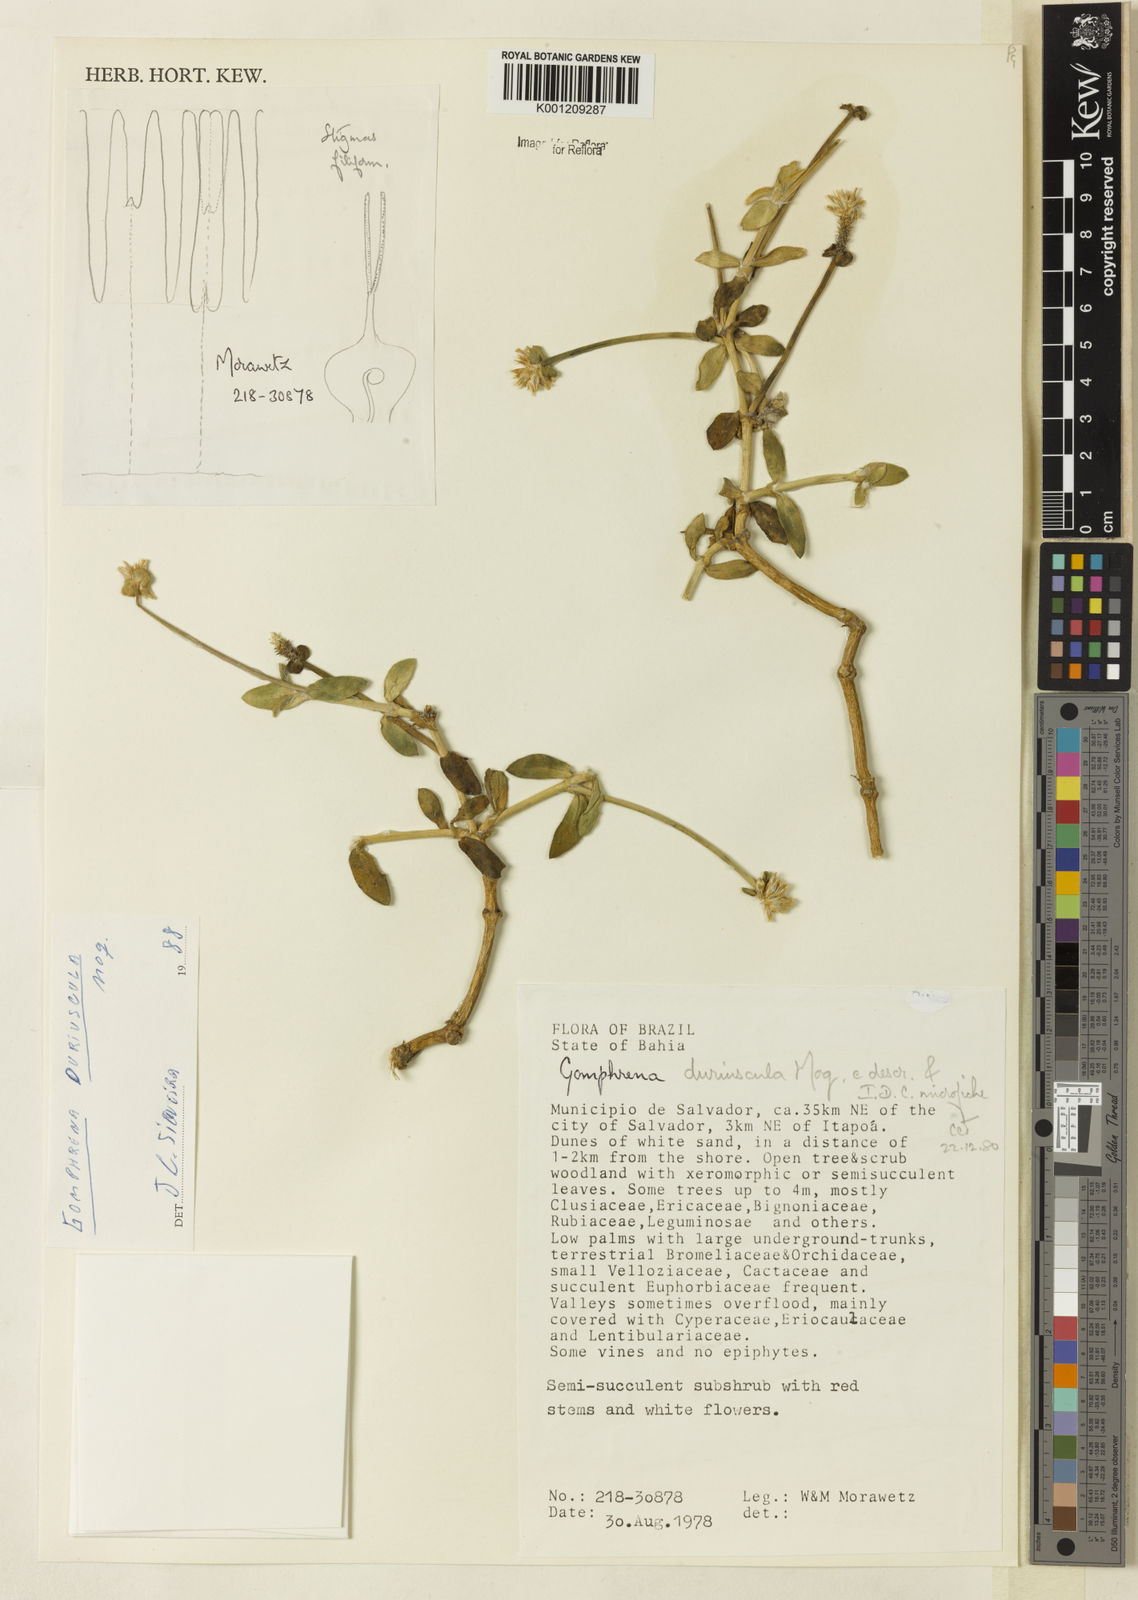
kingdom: Plantae
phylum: Tracheophyta
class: Magnoliopsida
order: Caryophyllales
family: Amaranthaceae
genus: Gomphrena
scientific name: Gomphrena duriuscula
